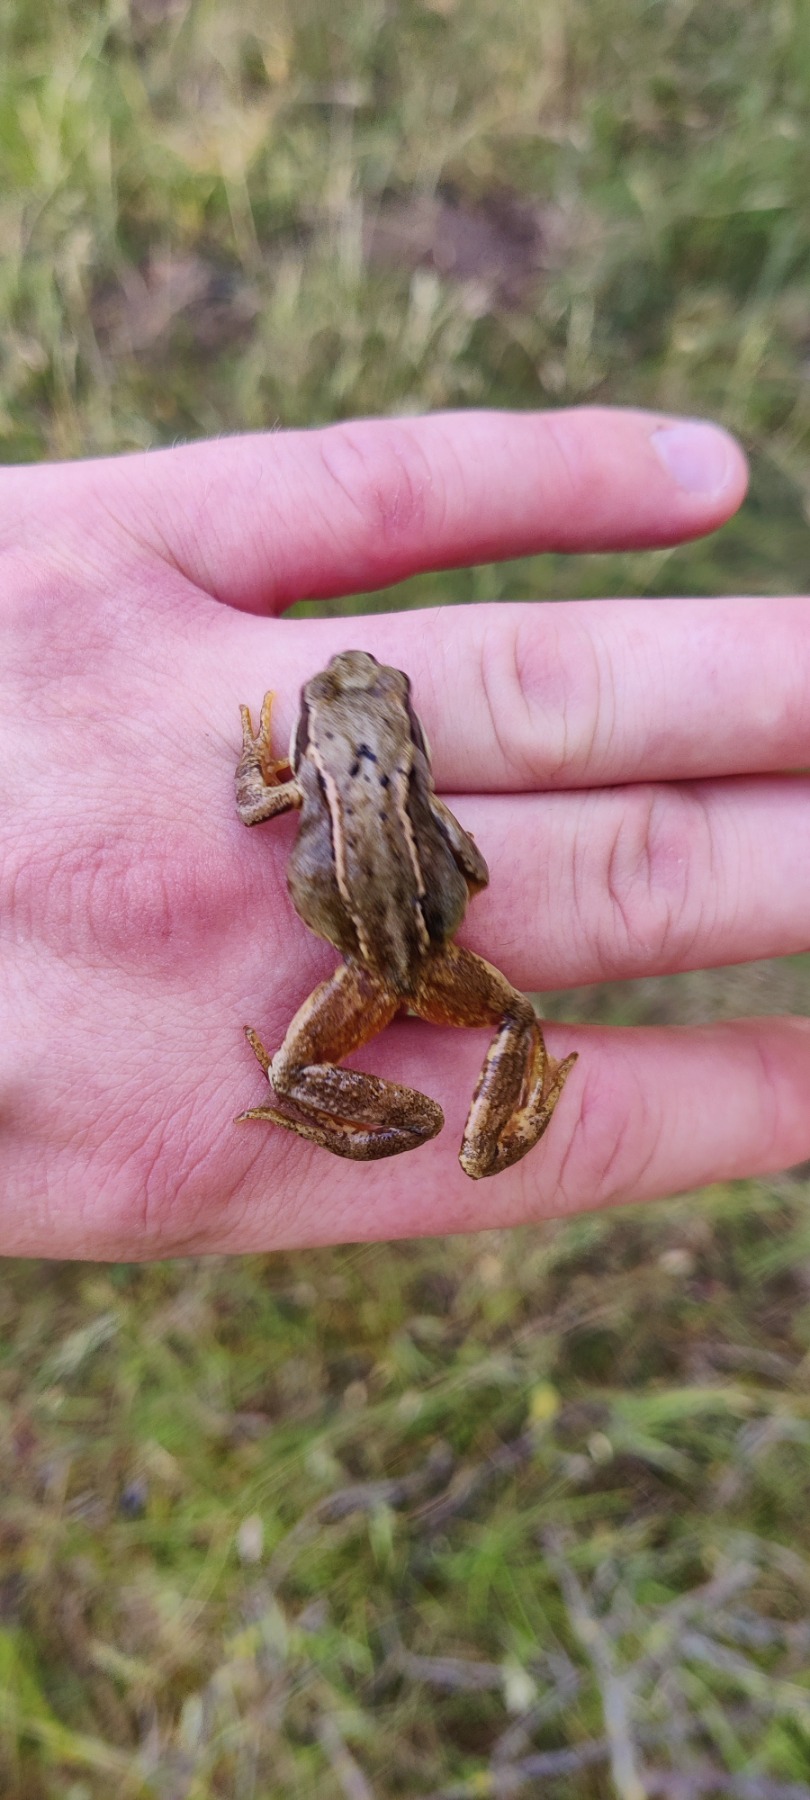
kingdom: Animalia
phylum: Chordata
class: Amphibia
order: Anura
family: Ranidae
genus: Rana
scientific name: Rana temporaria
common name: Butsnudet frø
